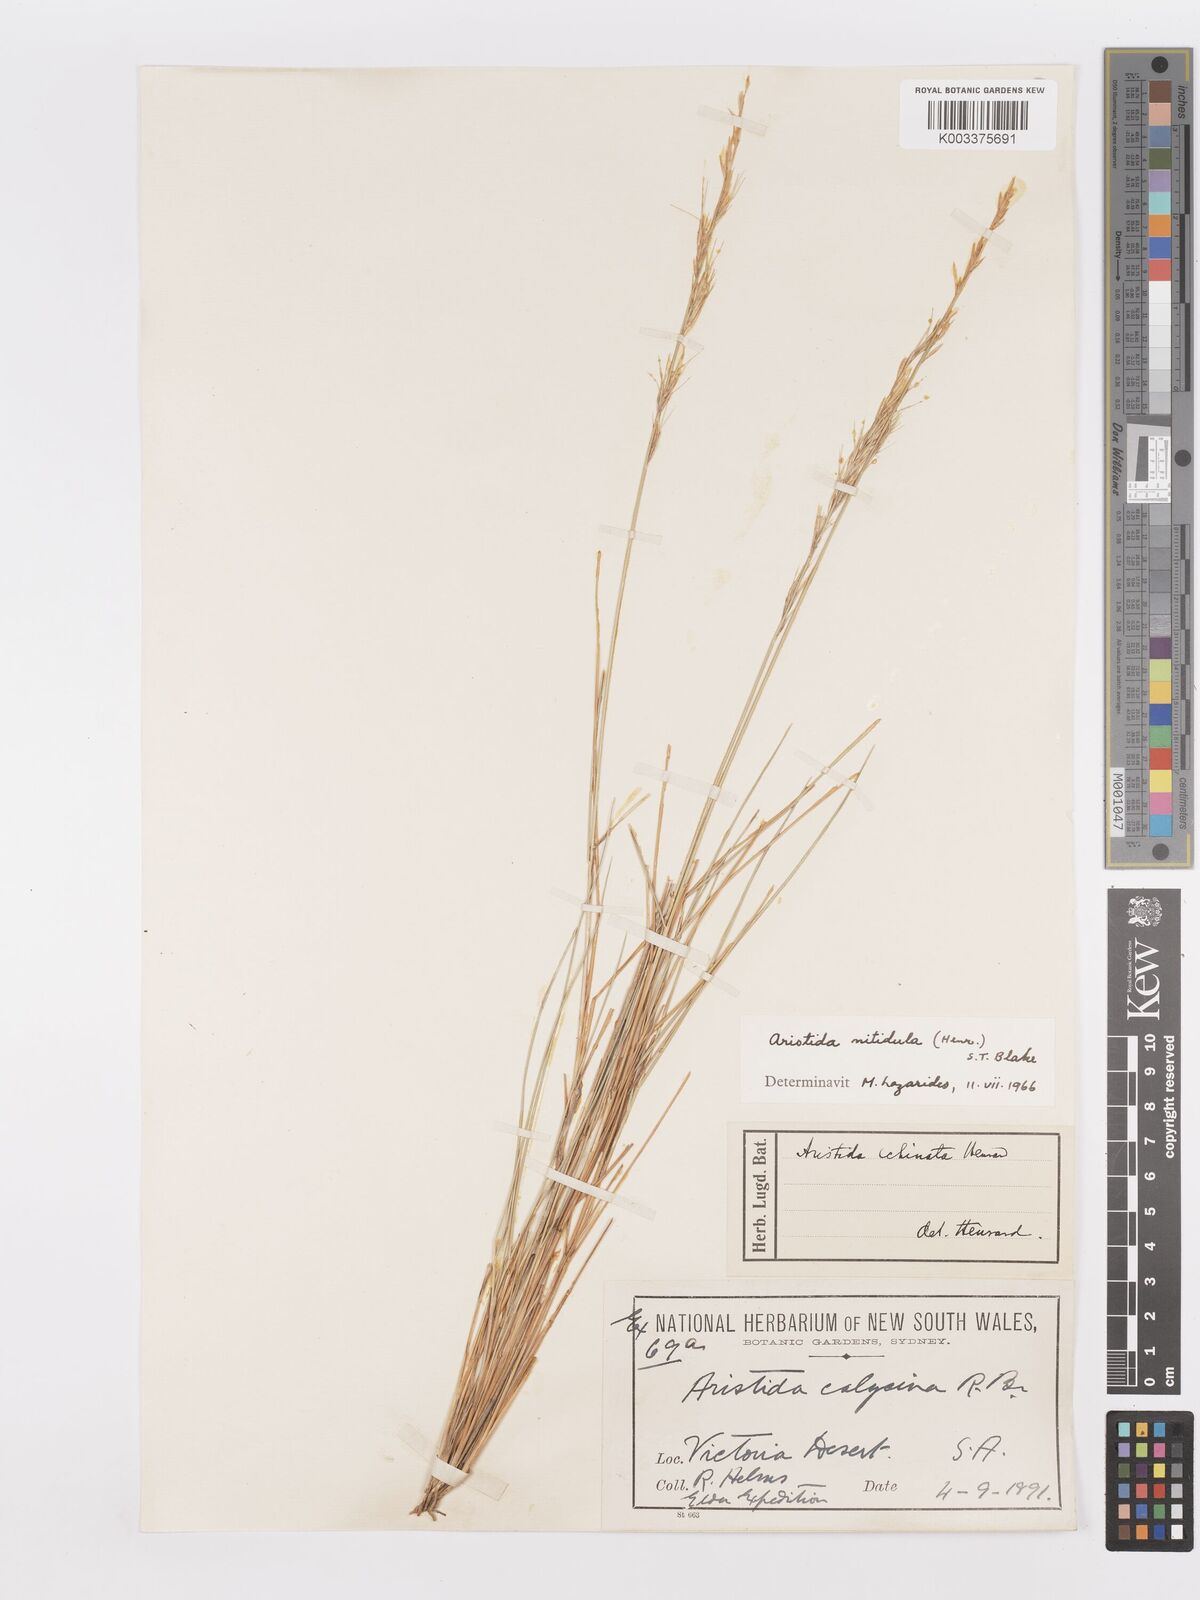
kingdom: Plantae
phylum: Tracheophyta
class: Liliopsida
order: Poales
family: Poaceae
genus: Aristida
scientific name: Aristida nitidula
